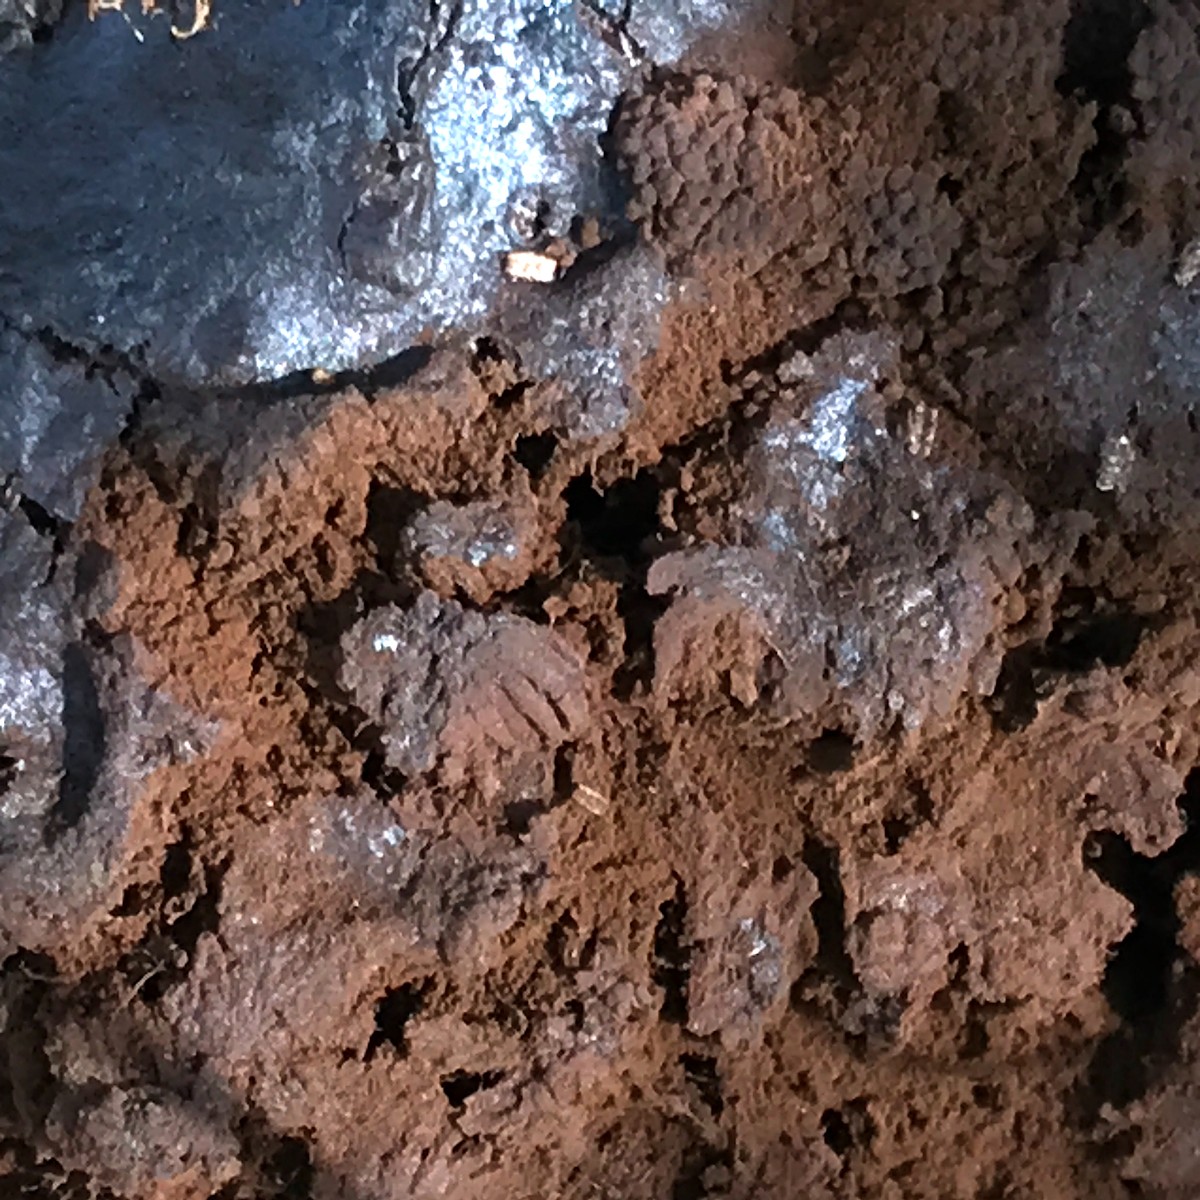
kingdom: Protozoa
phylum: Mycetozoa
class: Myxomycetes
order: Physarales
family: Physaraceae
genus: Fuligo
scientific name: Fuligo leviderma
